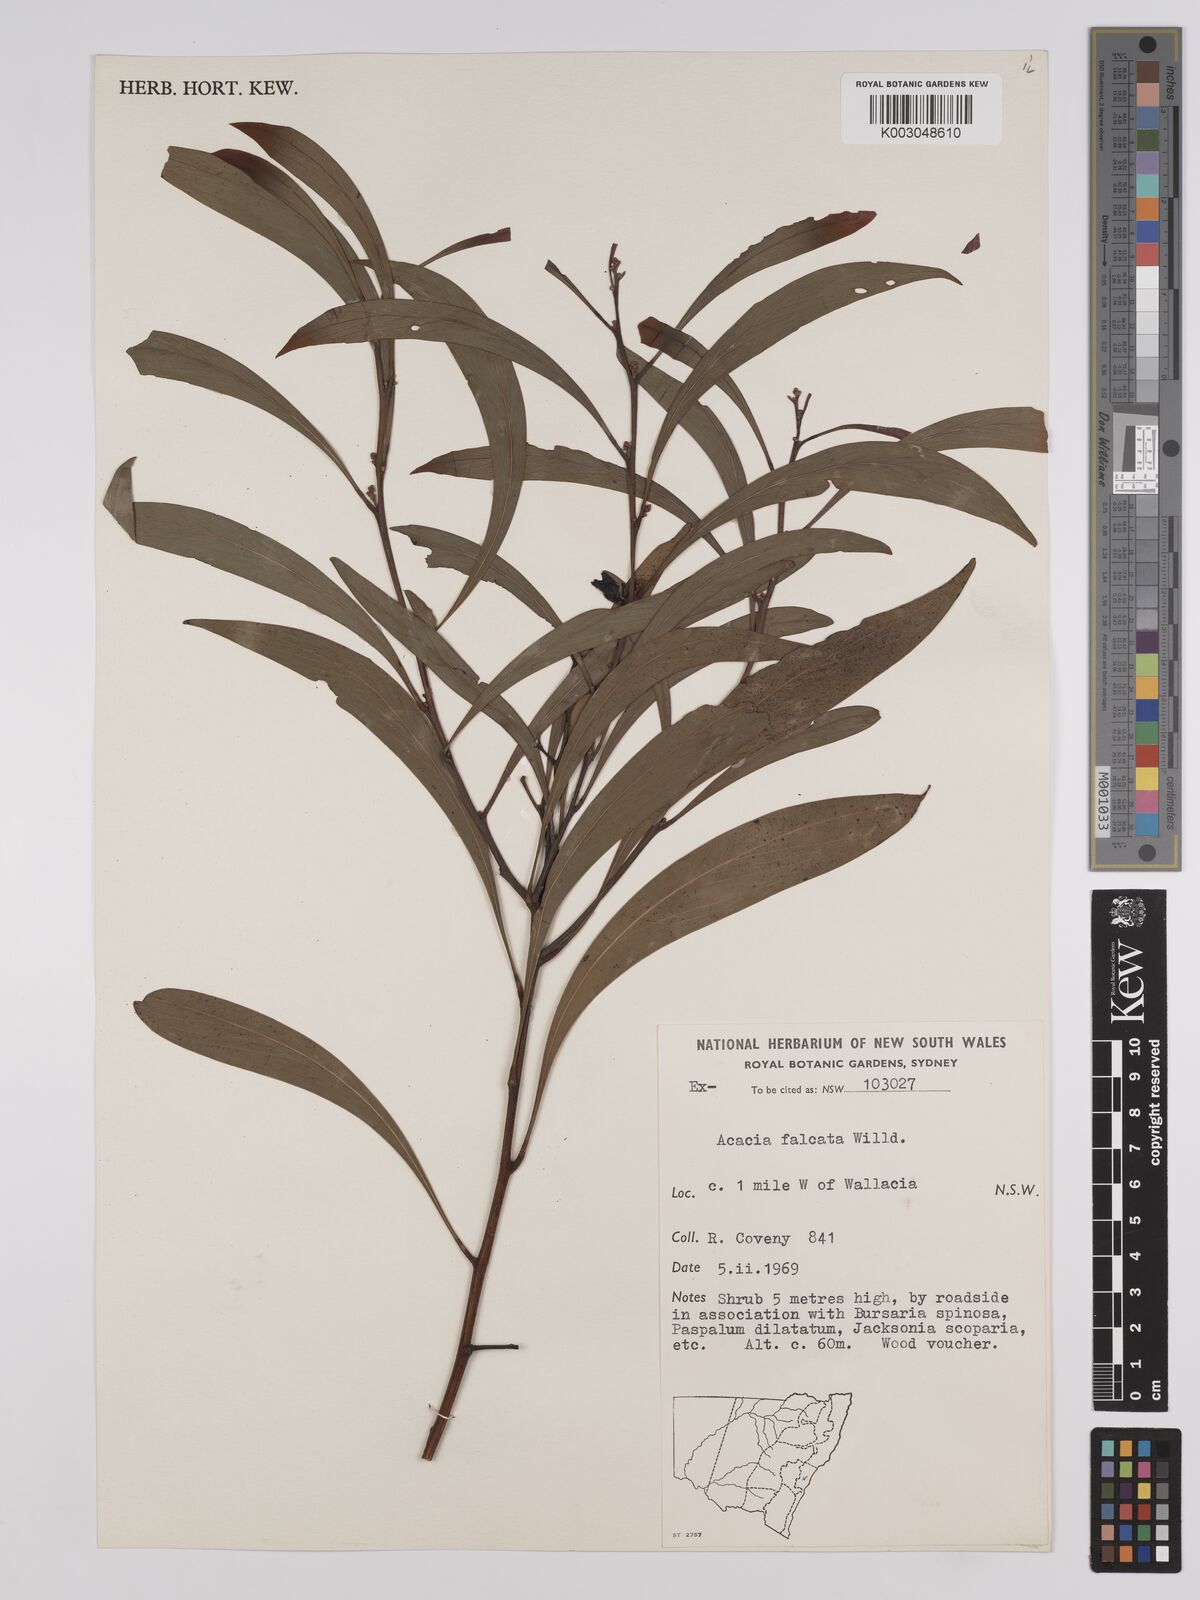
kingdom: Plantae
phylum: Tracheophyta
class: Magnoliopsida
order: Fabales
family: Fabaceae
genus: Acacia
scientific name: Acacia falcata
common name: Burra acacia
